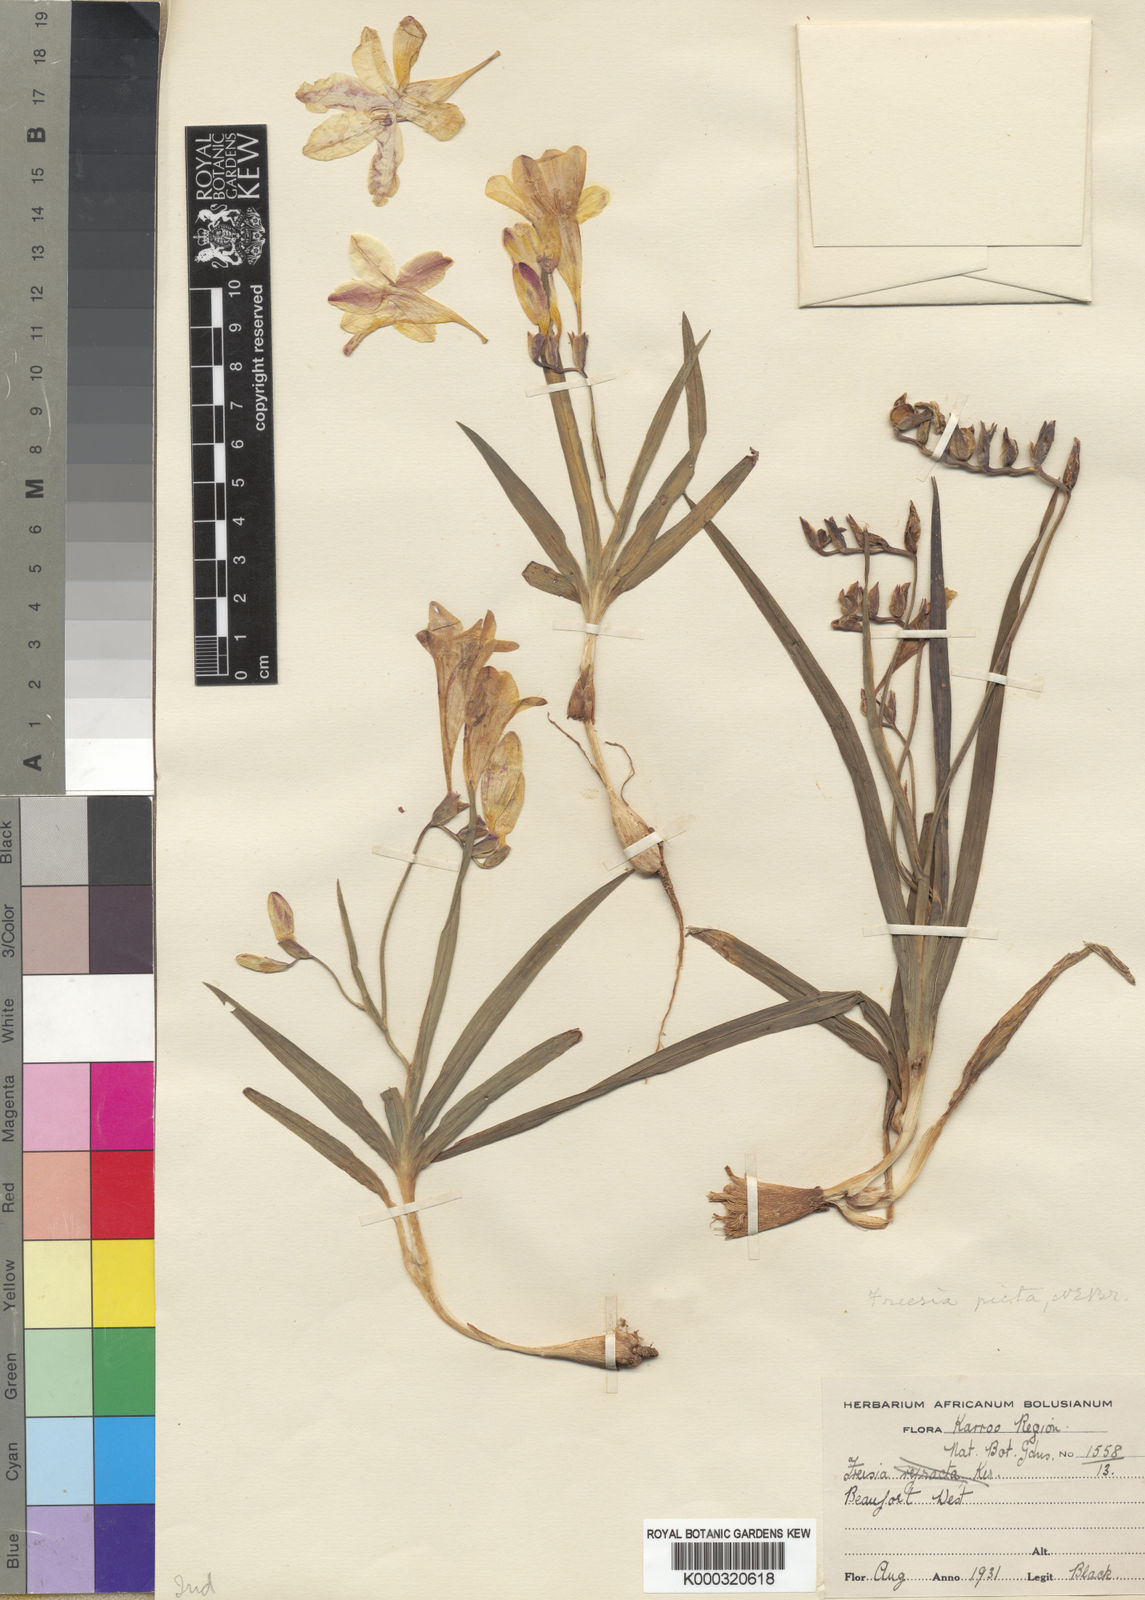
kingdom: Plantae
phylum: Tracheophyta
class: Liliopsida
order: Asparagales
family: Iridaceae
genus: Freesia
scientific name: Freesia leichtlinii
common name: Freesia
